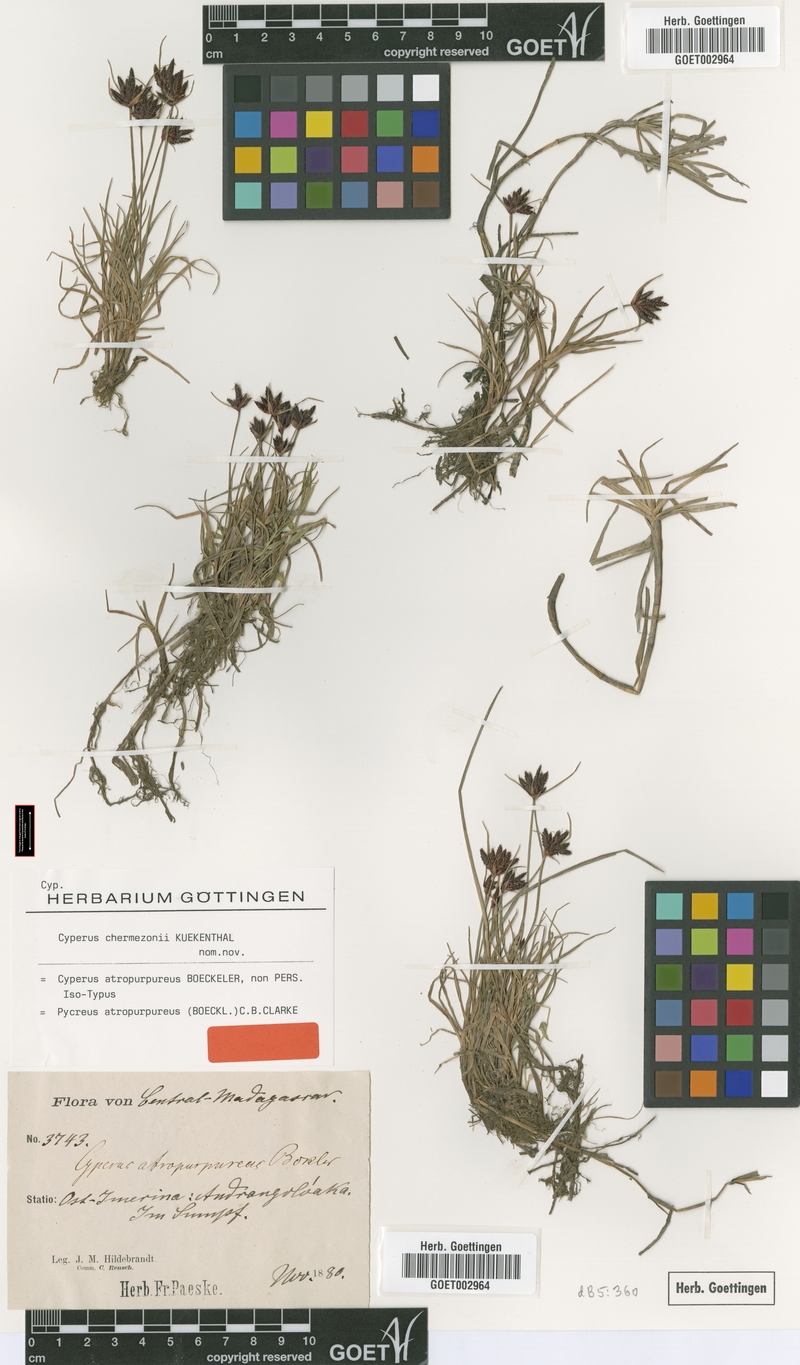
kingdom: Plantae
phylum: Tracheophyta
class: Liliopsida
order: Poales
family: Cyperaceae
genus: Cyperus
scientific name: Cyperus chermezonii
